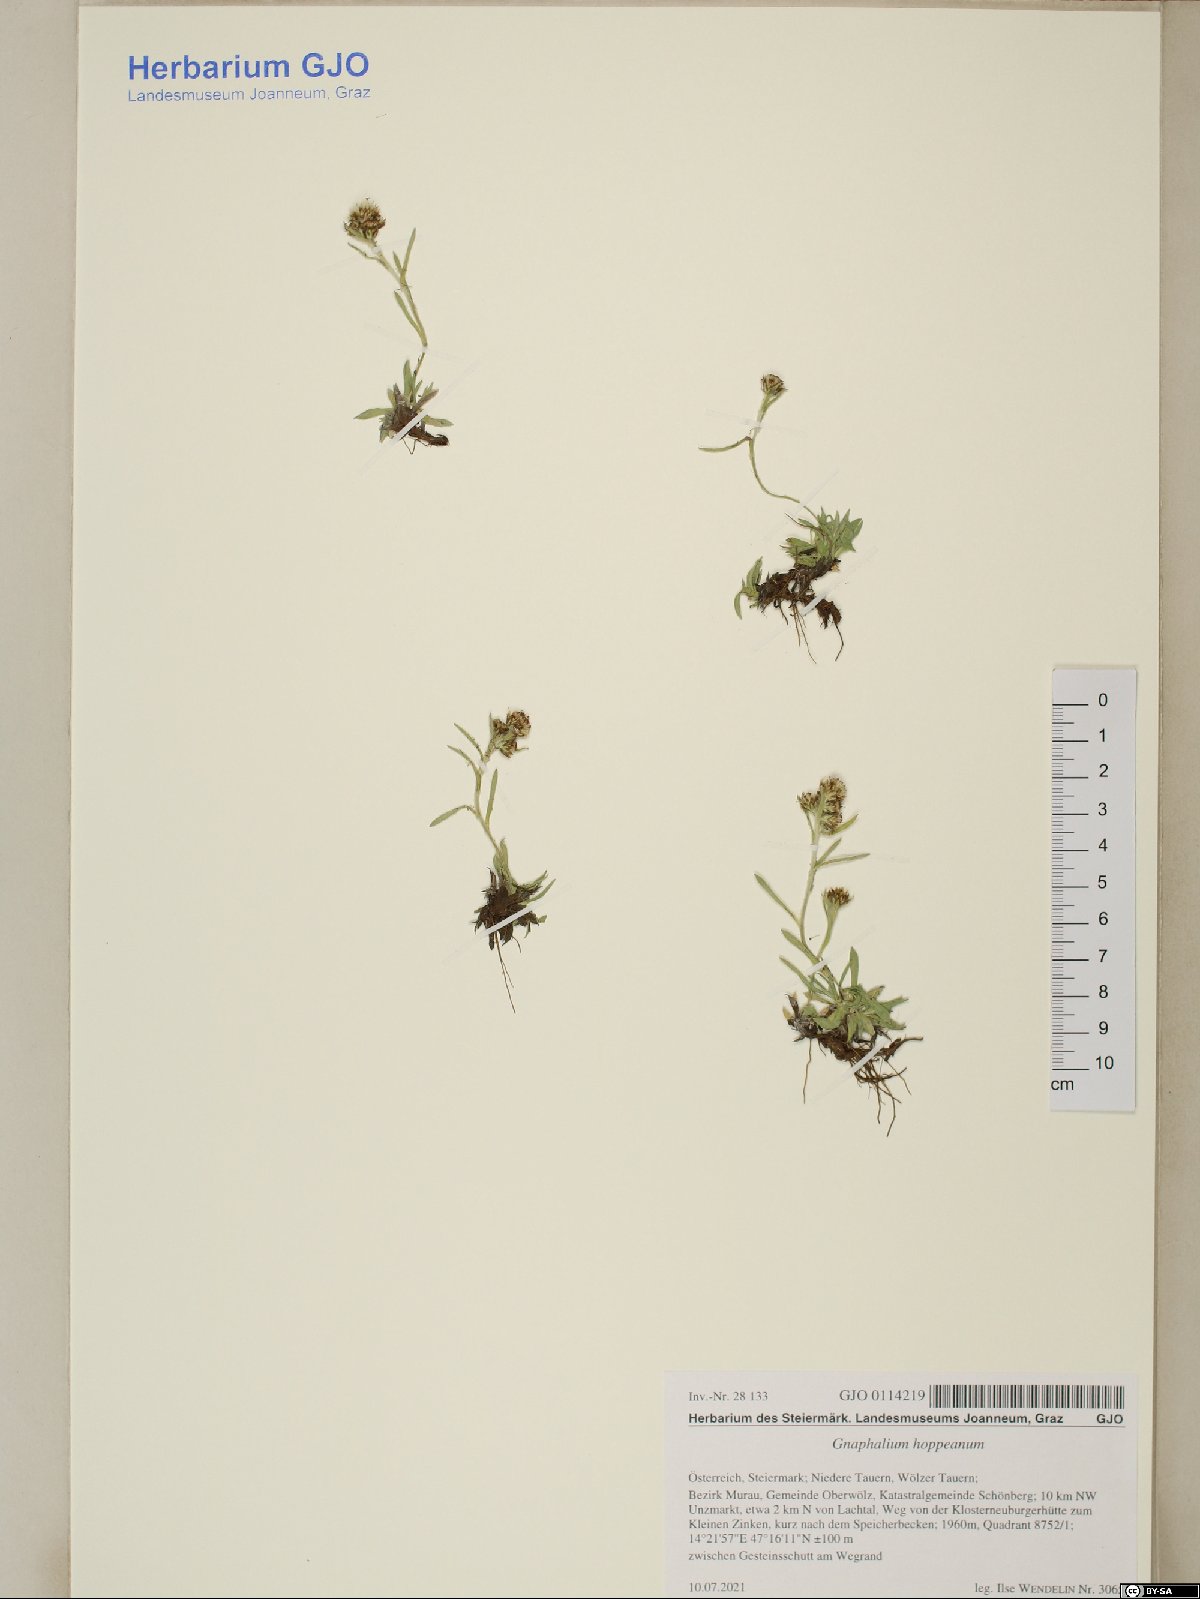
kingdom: Plantae
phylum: Tracheophyta
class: Magnoliopsida
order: Asterales
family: Asteraceae
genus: Omalotheca
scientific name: Omalotheca hoppeana
